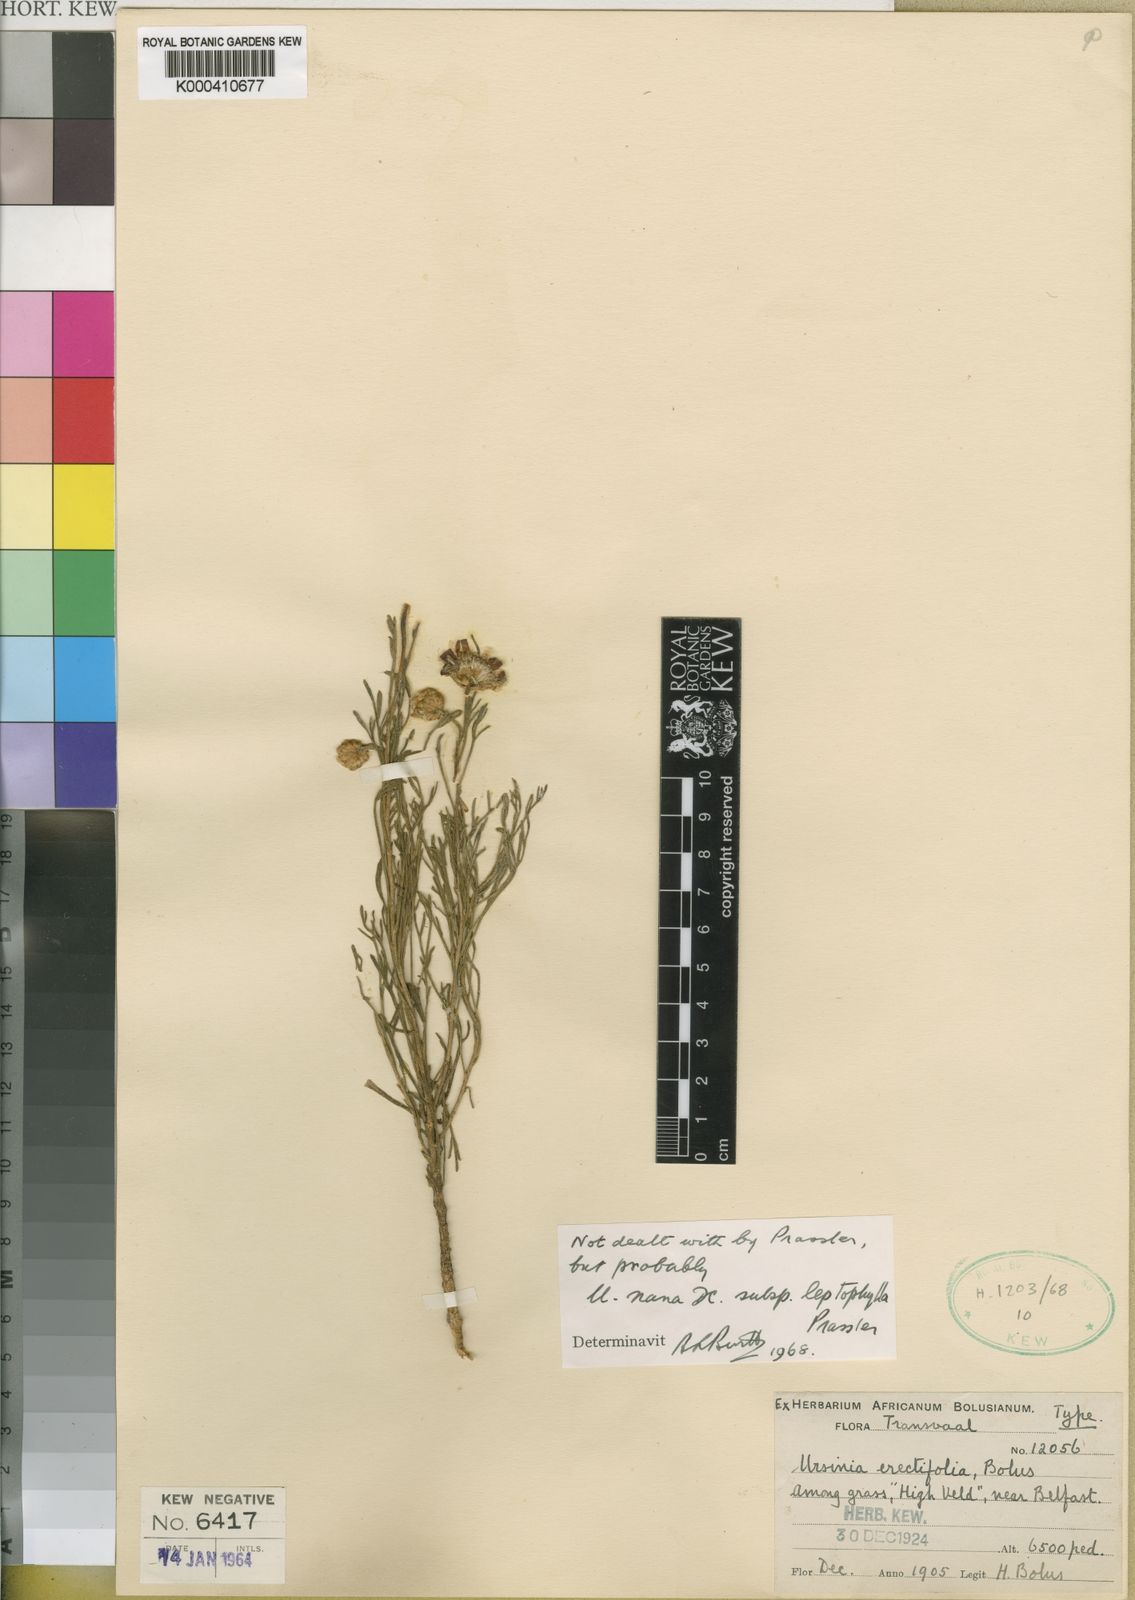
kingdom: Plantae
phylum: Tracheophyta
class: Magnoliopsida
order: Asterales
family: Asteraceae
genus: Ursinia
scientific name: Ursinia nana
